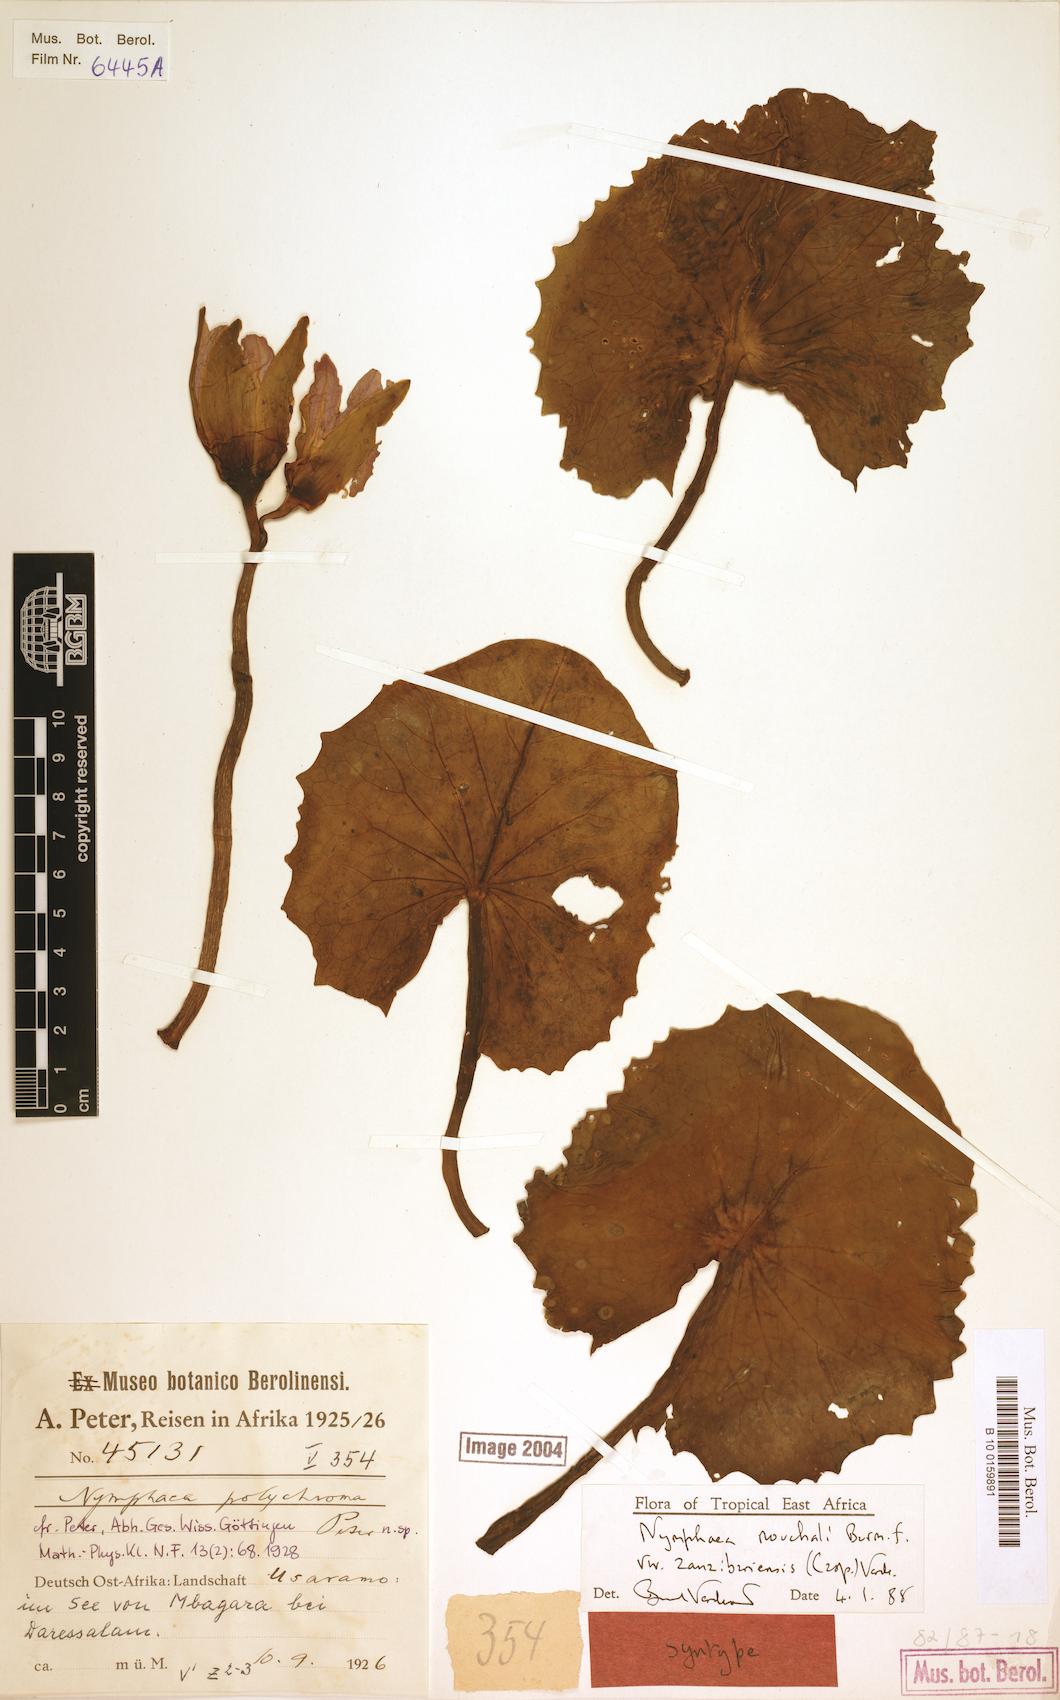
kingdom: Plantae
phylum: Tracheophyta
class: Magnoliopsida
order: Nymphaeales
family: Nymphaeaceae
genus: Nymphaea
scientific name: Nymphaea nouchali
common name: Blue lotus
